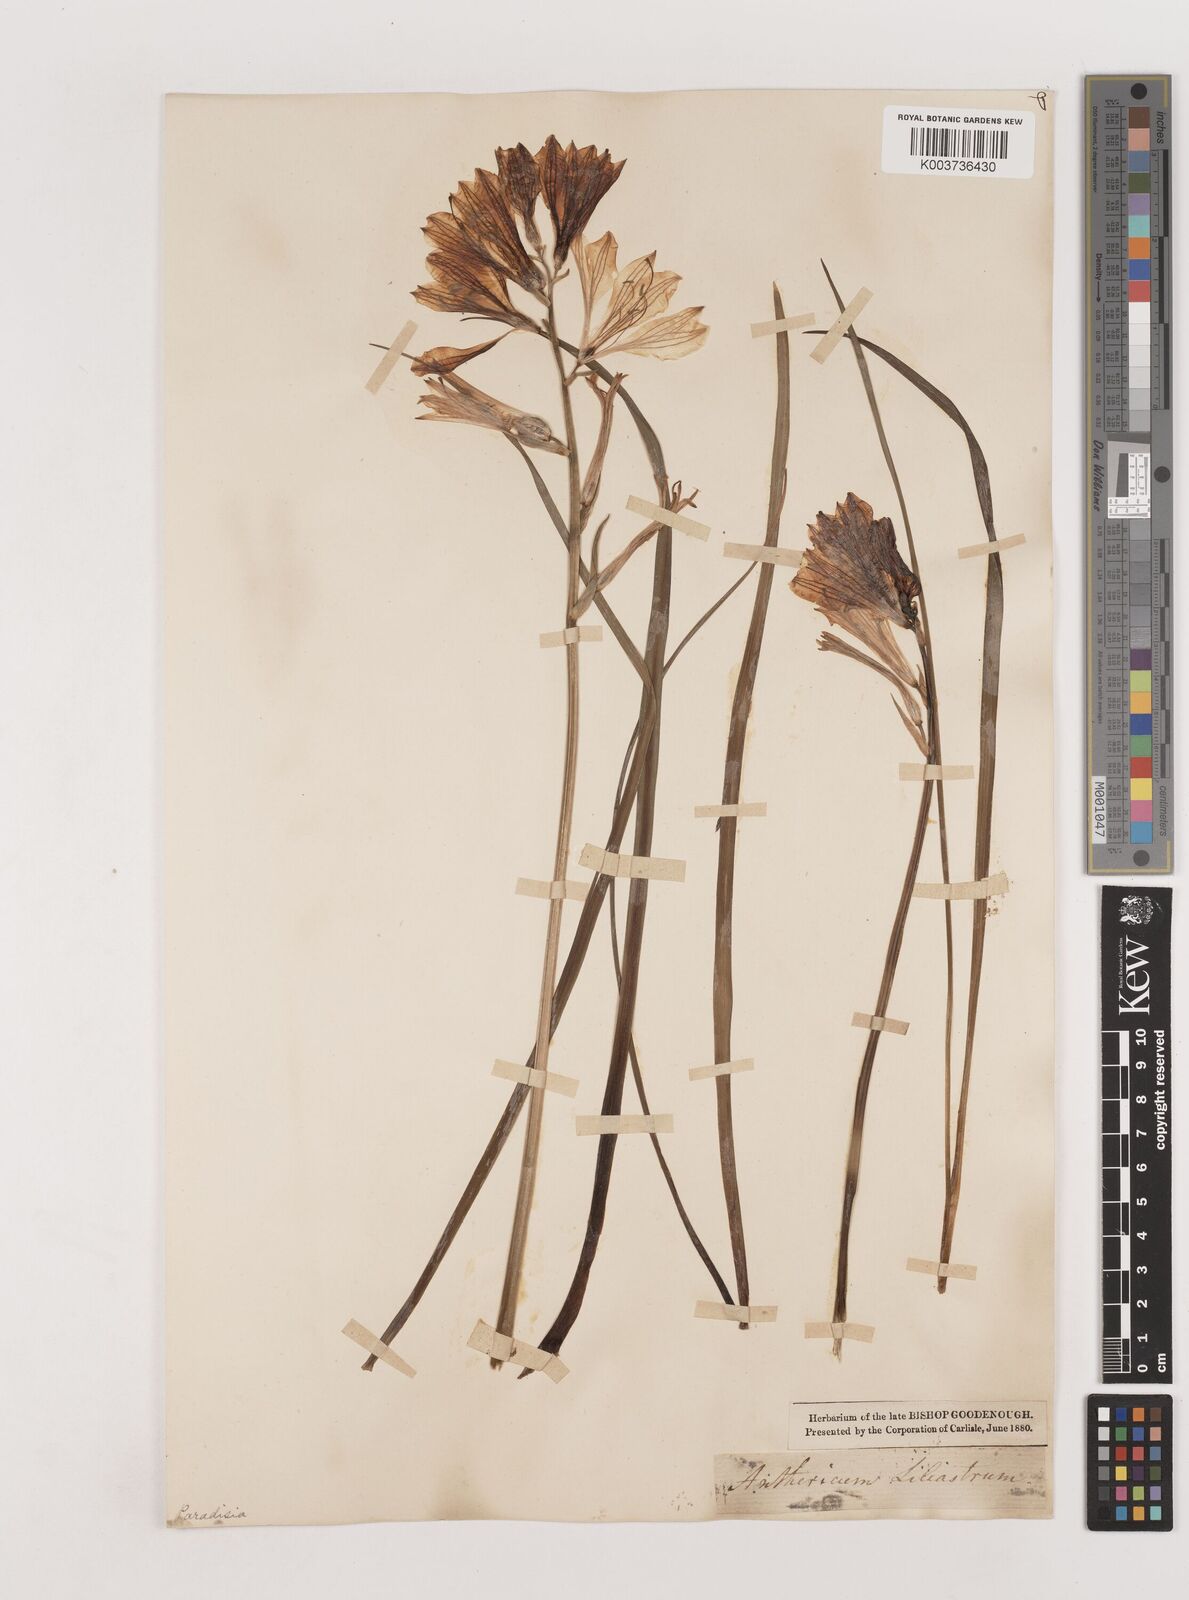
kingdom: Plantae
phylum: Tracheophyta
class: Liliopsida
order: Asparagales
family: Asparagaceae
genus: Paradisea
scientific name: Paradisea liliastrum
